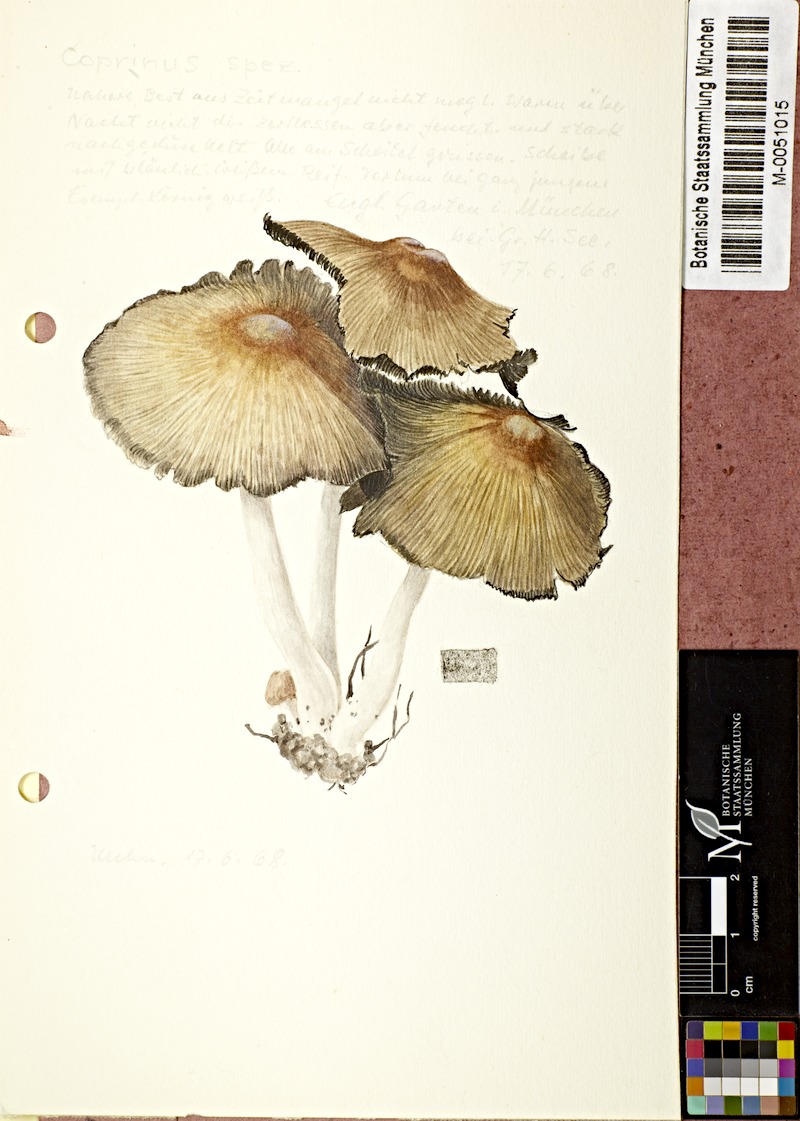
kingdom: Fungi
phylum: Basidiomycota
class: Agaricomycetes
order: Agaricales
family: Agaricaceae
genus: Coprinus
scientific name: Coprinus
